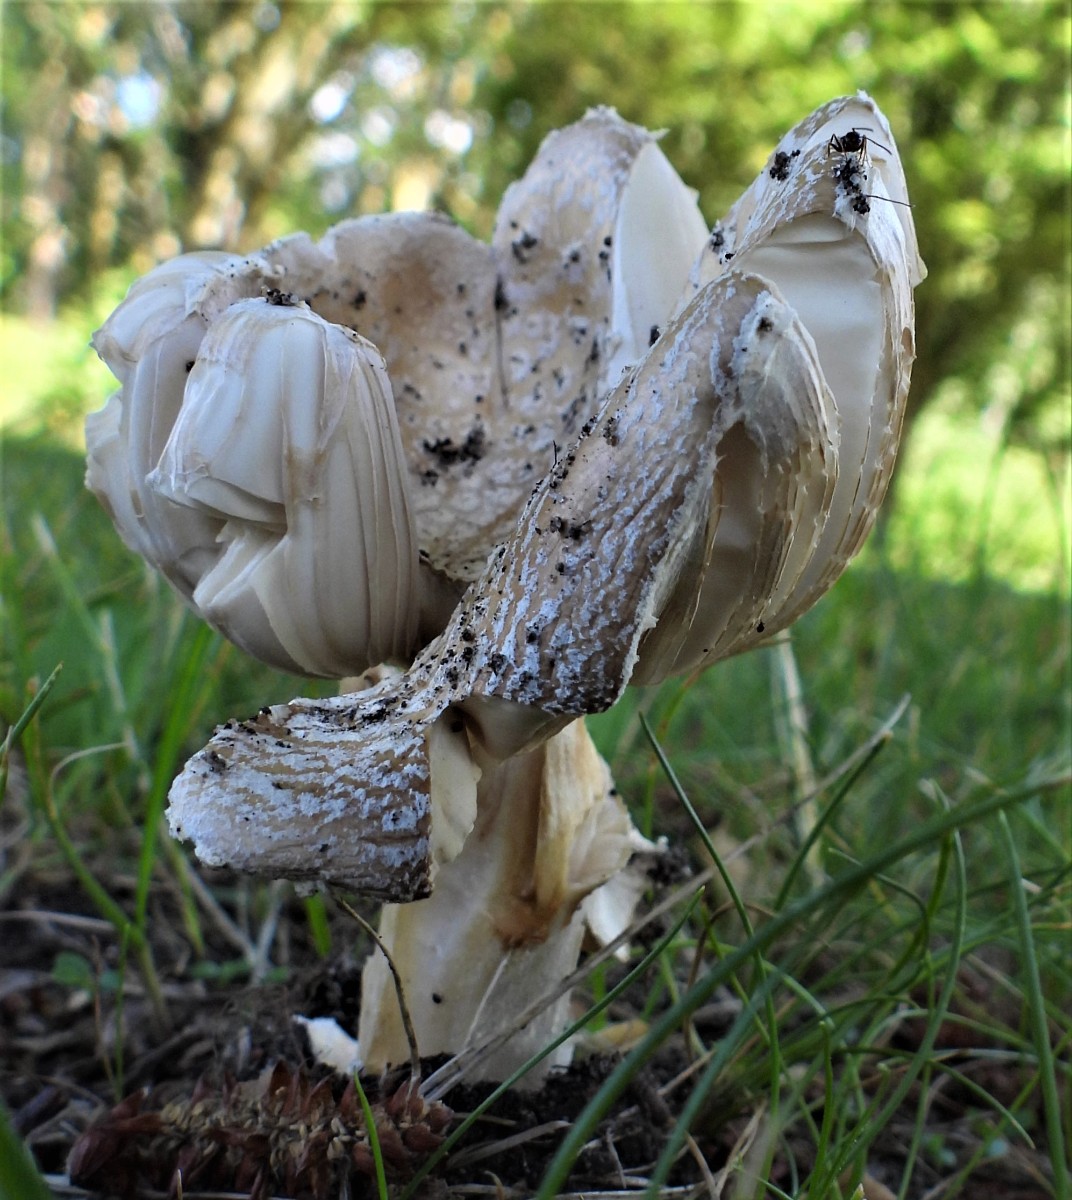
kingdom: Fungi
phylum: Basidiomycota
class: Agaricomycetes
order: Agaricales
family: Amanitaceae
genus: Amanita
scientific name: Amanita pantherina
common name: panter-fluesvamp
